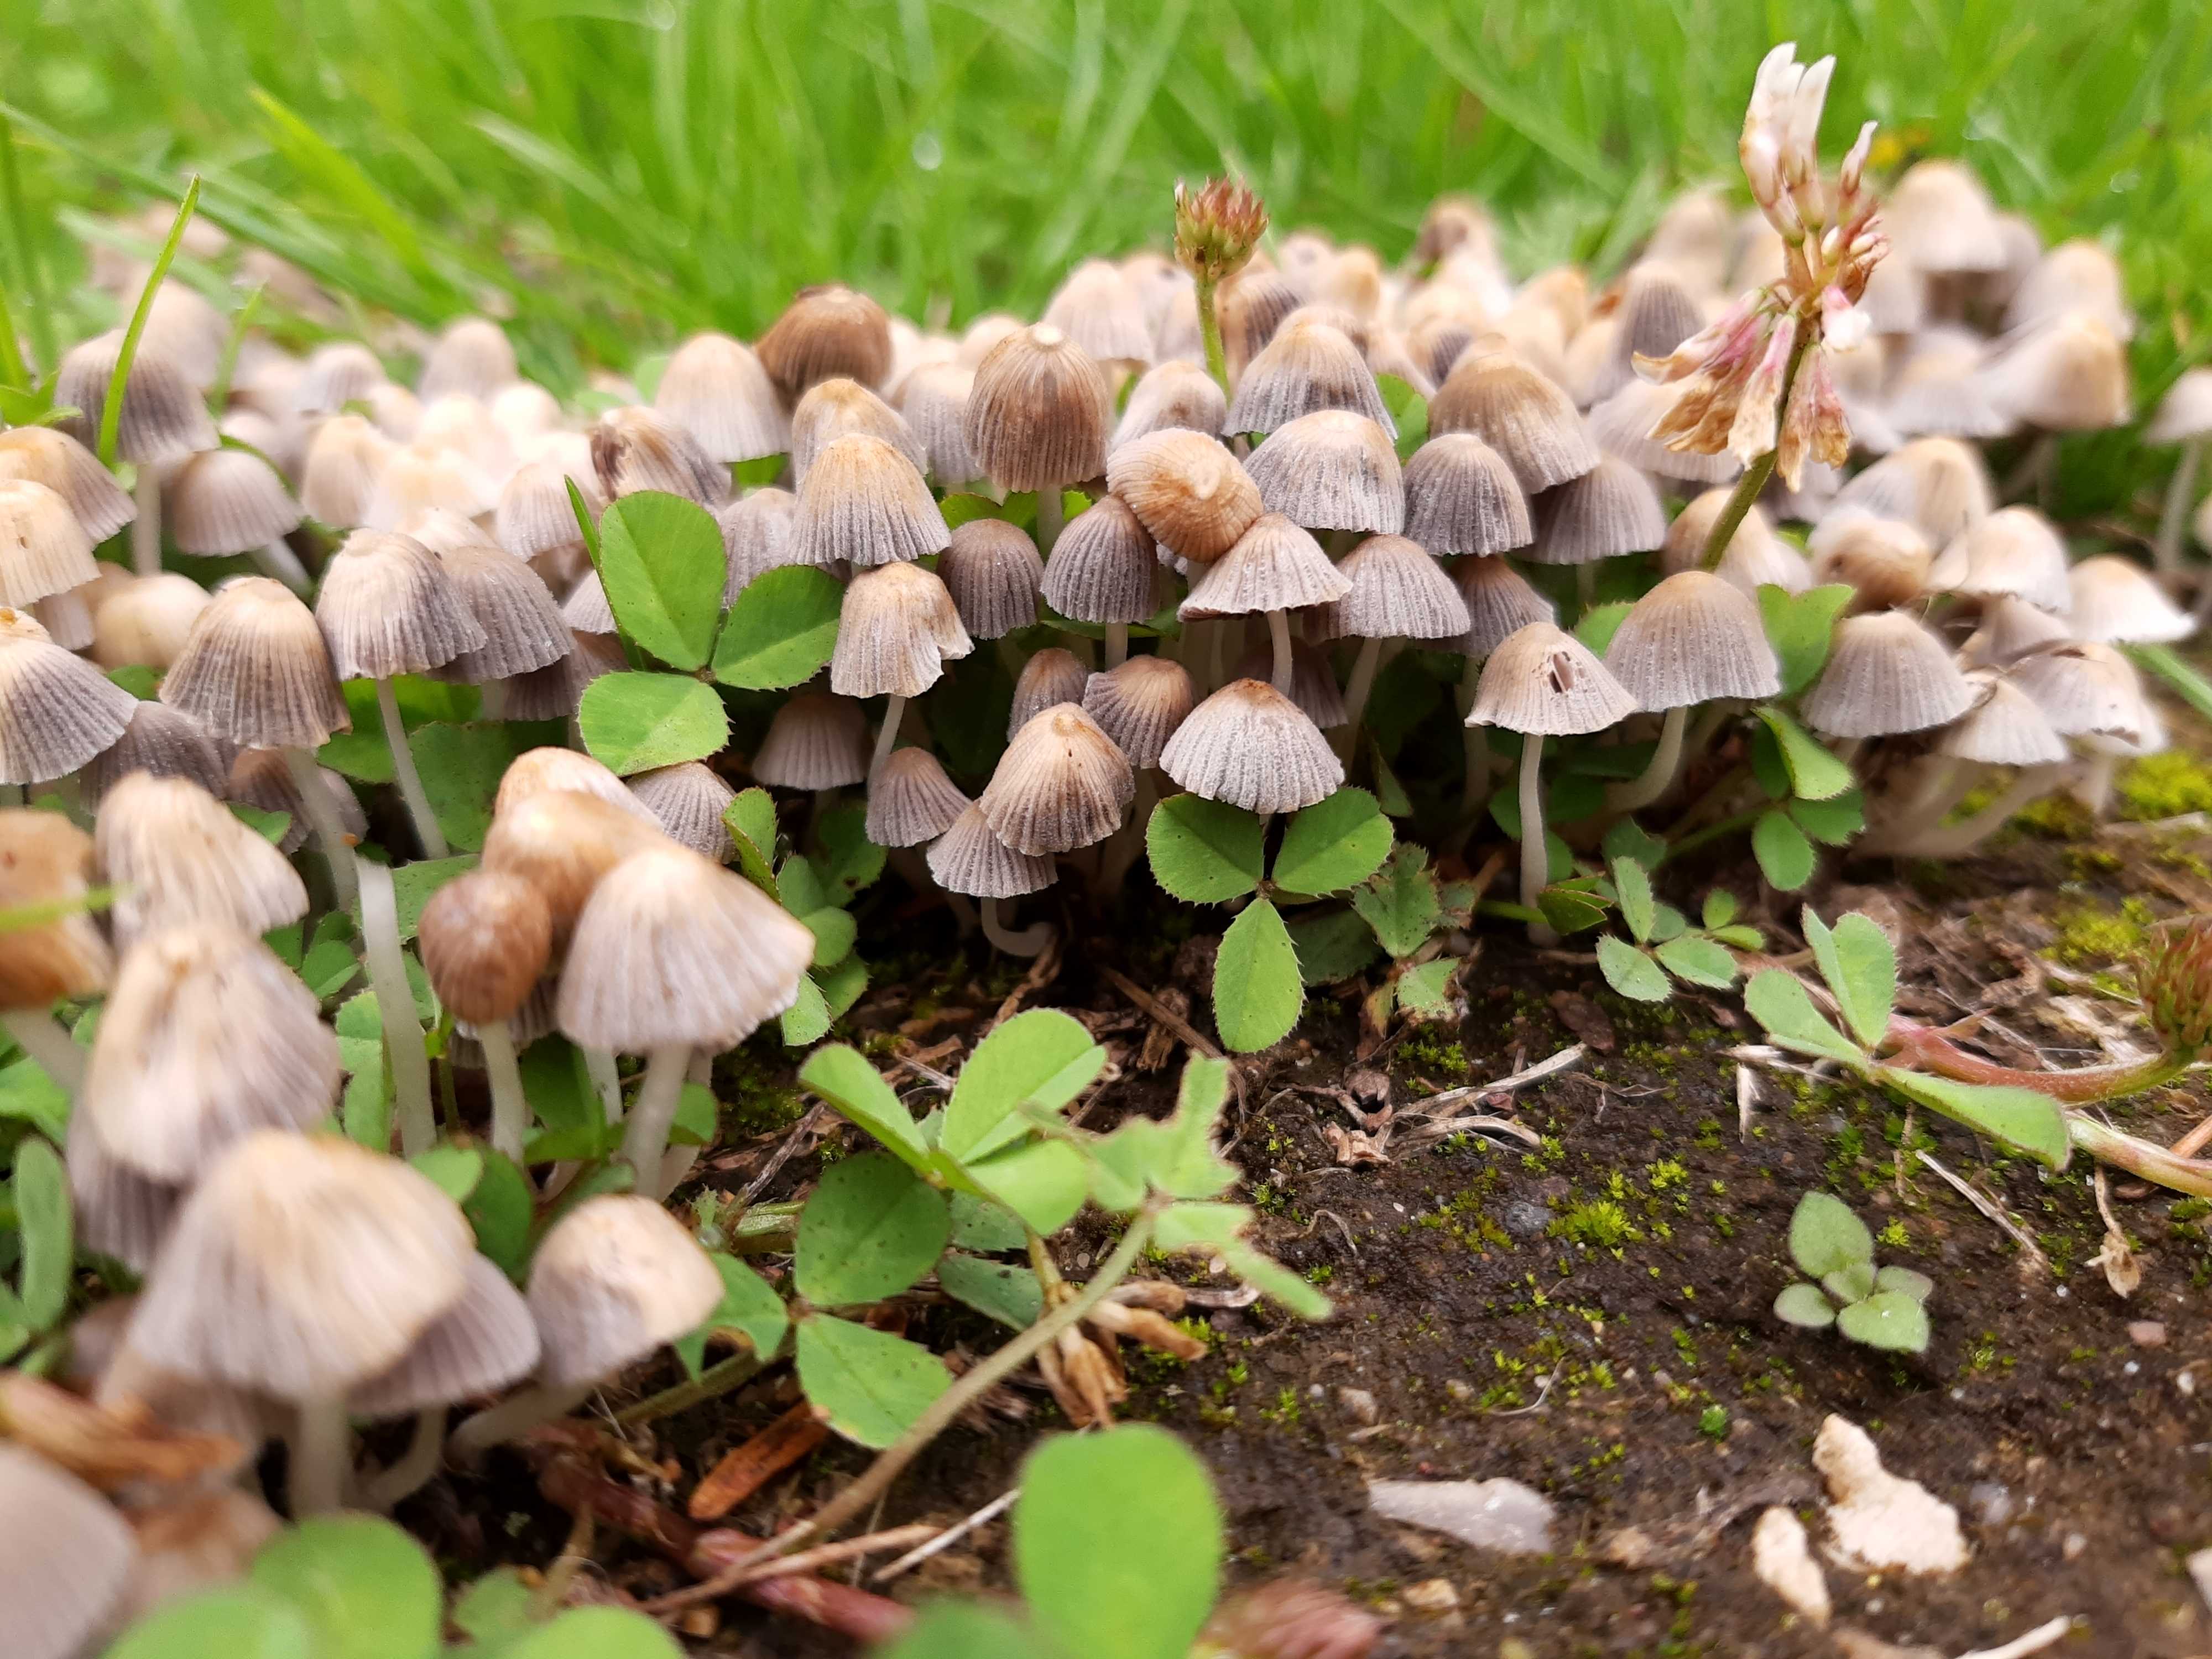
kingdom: Fungi
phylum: Basidiomycota
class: Agaricomycetes
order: Agaricales
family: Psathyrellaceae
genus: Coprinellus
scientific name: Coprinellus disseminatus
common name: bredsået blækhat
